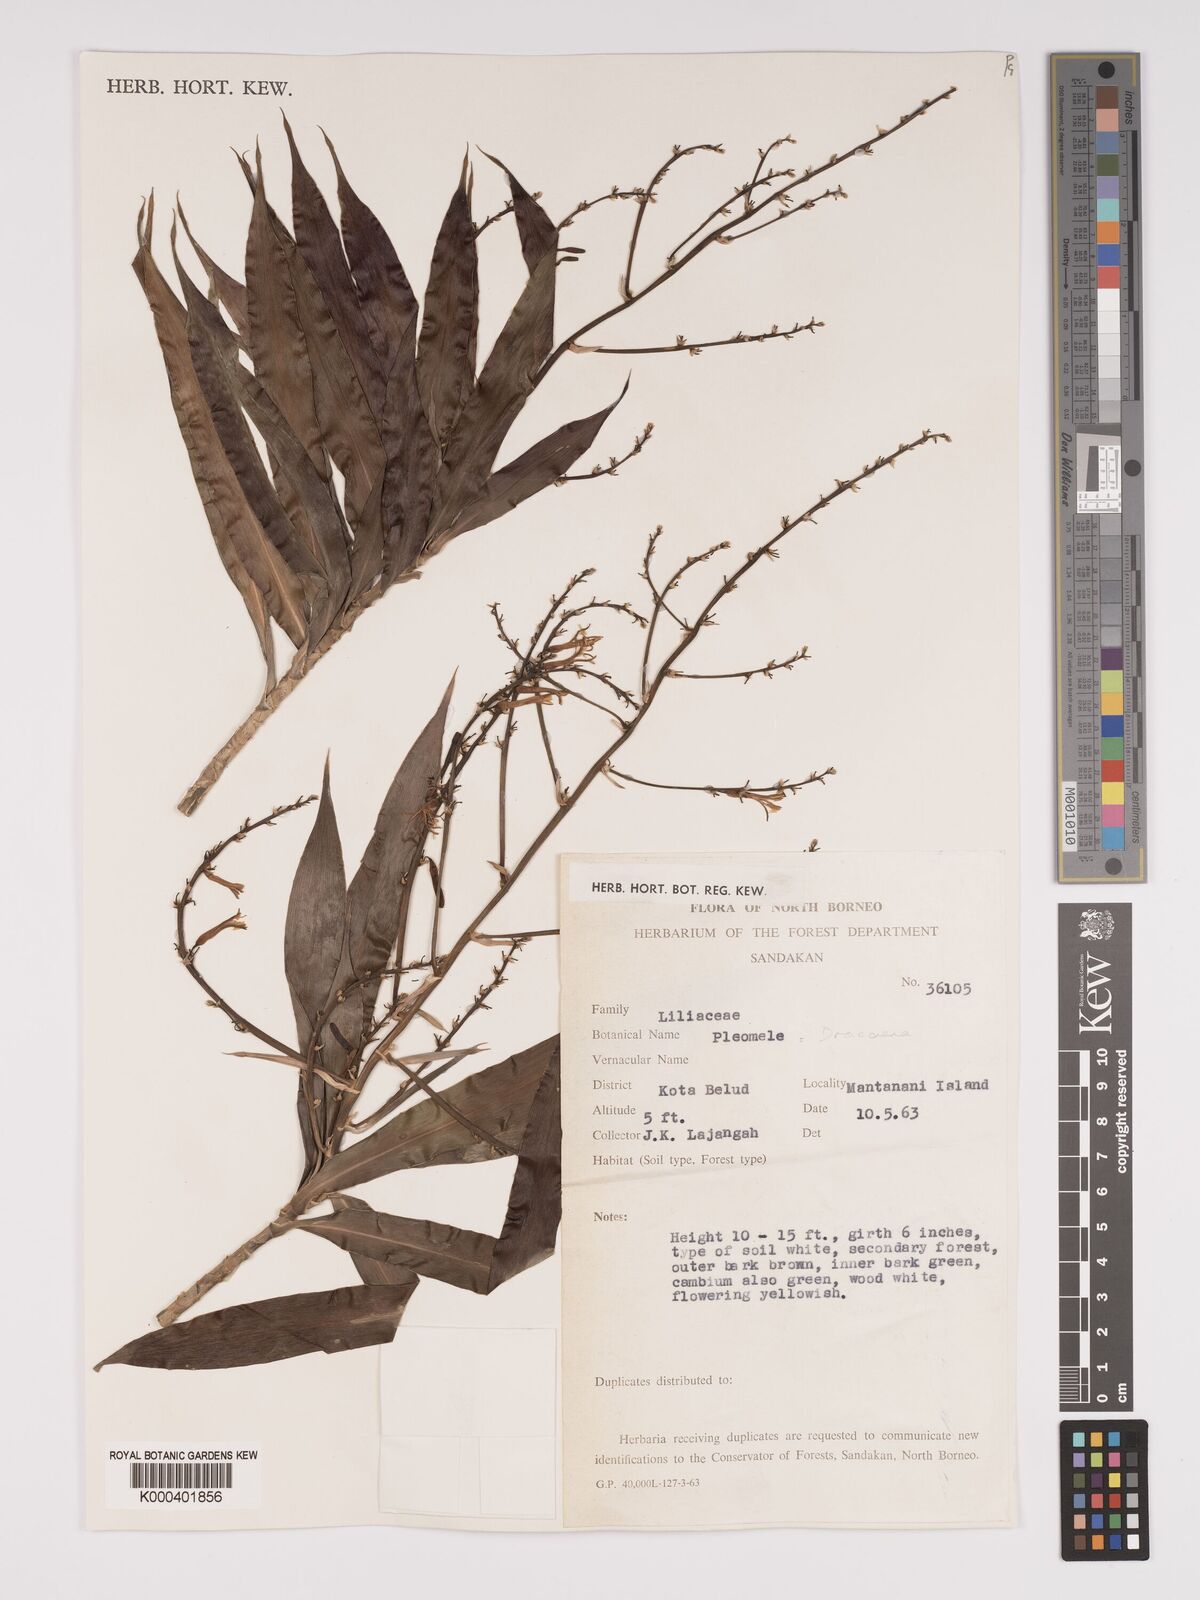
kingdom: Plantae
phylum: Tracheophyta
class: Liliopsida
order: Asparagales
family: Asparagaceae
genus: Dracaena
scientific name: Dracaena
